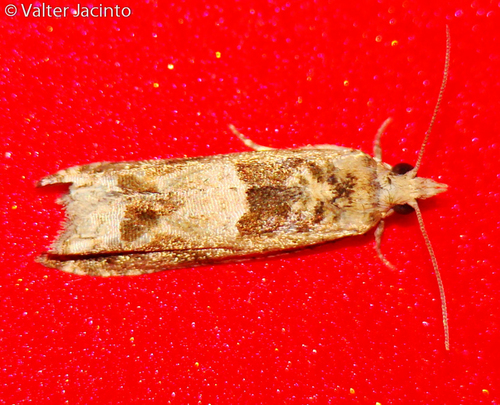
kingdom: Animalia
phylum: Arthropoda
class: Insecta
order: Lepidoptera
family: Tortricidae
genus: Crocidosema
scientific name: Crocidosema plebejana
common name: Southern bell
